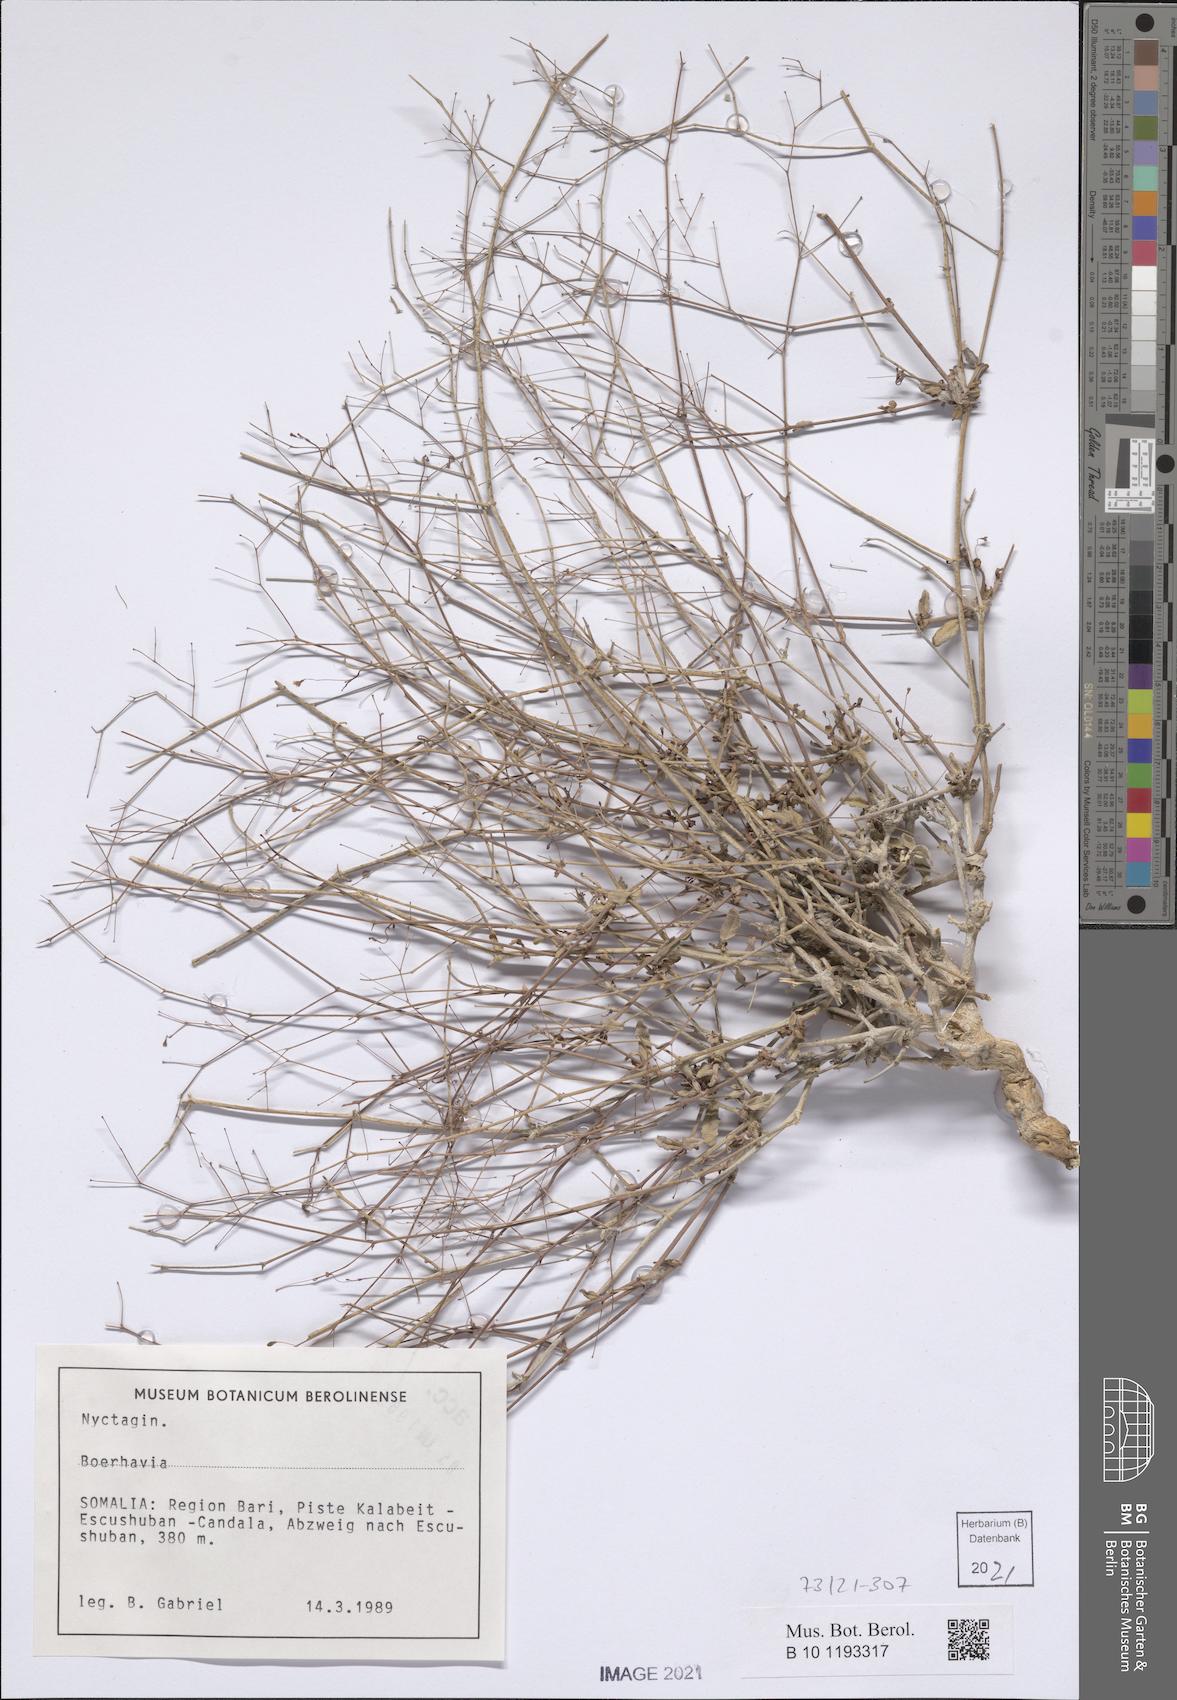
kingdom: Plantae
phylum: Tracheophyta
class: Magnoliopsida
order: Caryophyllales
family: Nyctaginaceae
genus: Boerhavia
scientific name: Boerhavia
